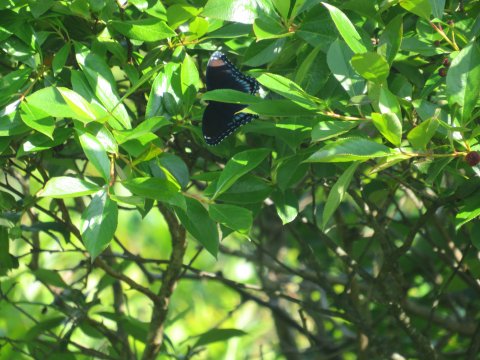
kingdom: Animalia
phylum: Arthropoda
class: Insecta
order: Lepidoptera
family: Nymphalidae
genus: Limenitis
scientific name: Limenitis arthemis
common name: Red-spotted Admiral
